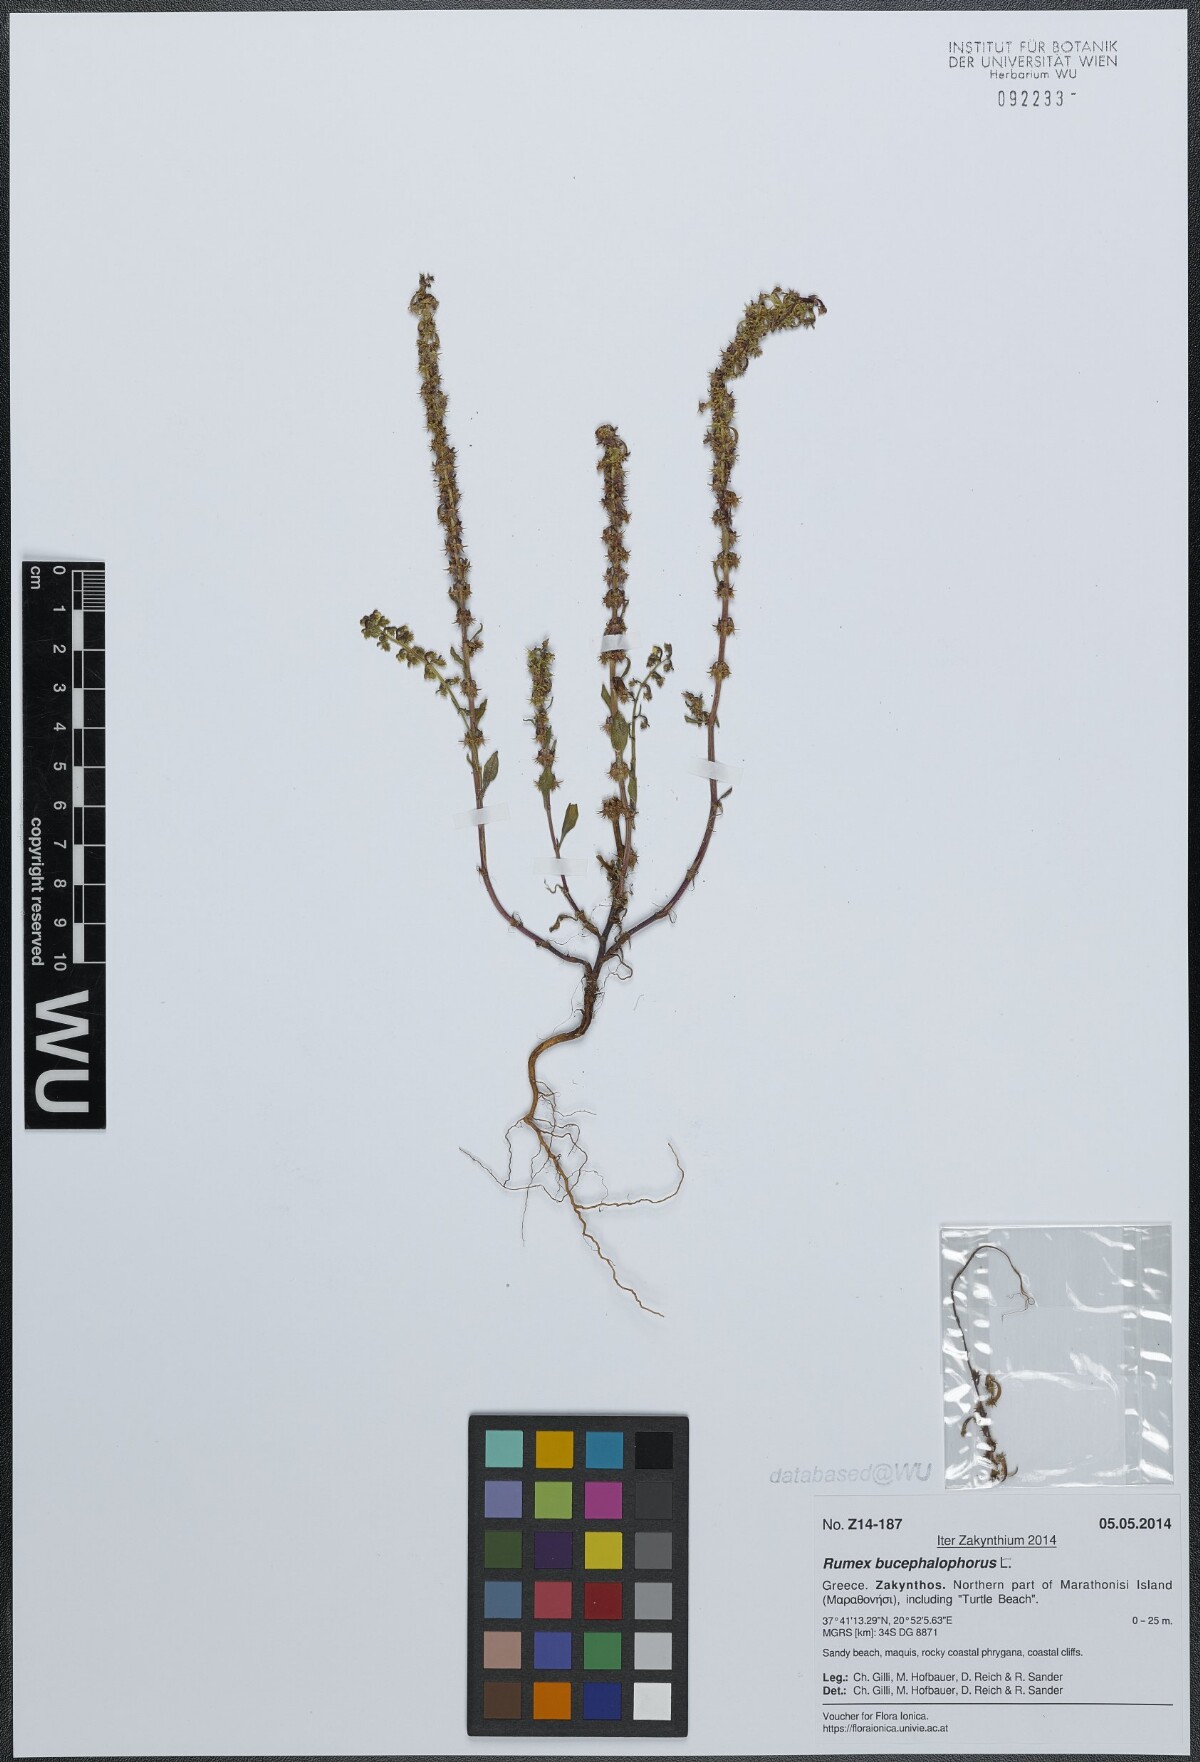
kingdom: Plantae
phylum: Tracheophyta
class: Magnoliopsida
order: Caryophyllales
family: Polygonaceae
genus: Rumex
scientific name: Rumex bucephalophorus
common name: Red dock
